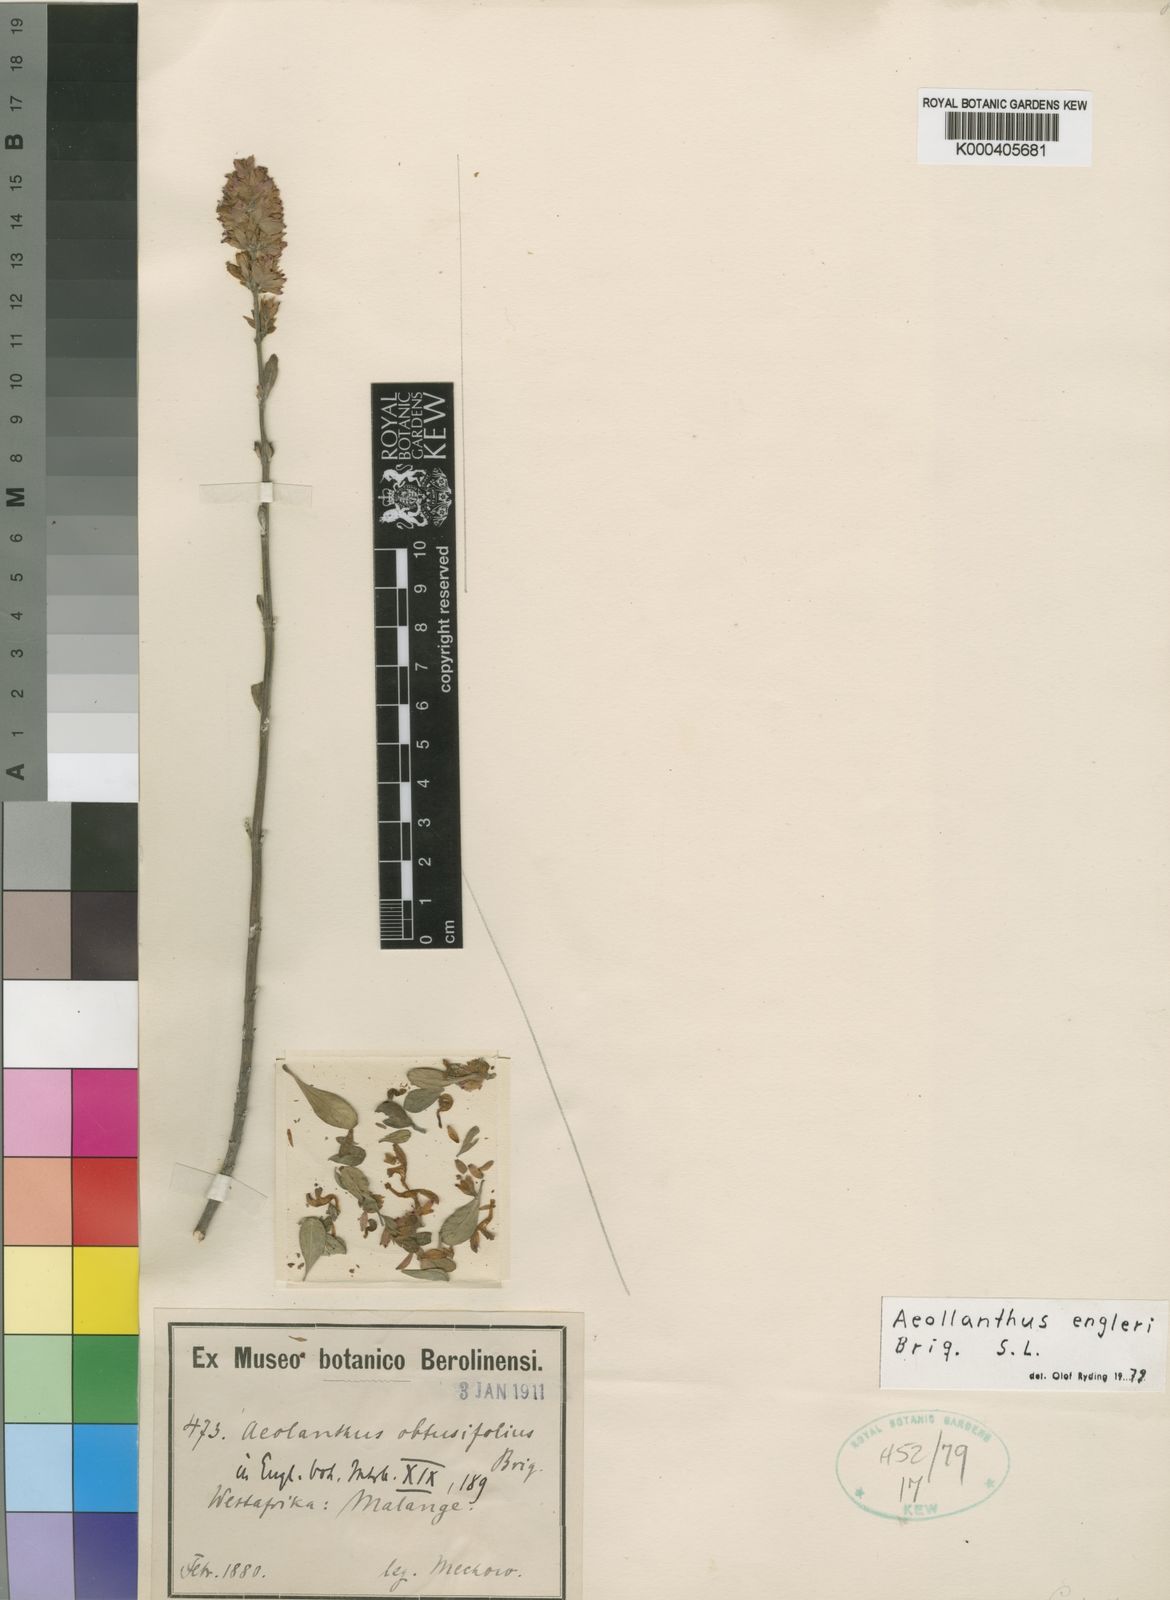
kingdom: Plantae
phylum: Tracheophyta
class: Magnoliopsida
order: Lamiales
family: Lamiaceae
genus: Aeollanthus
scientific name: Aeollanthus engleri
